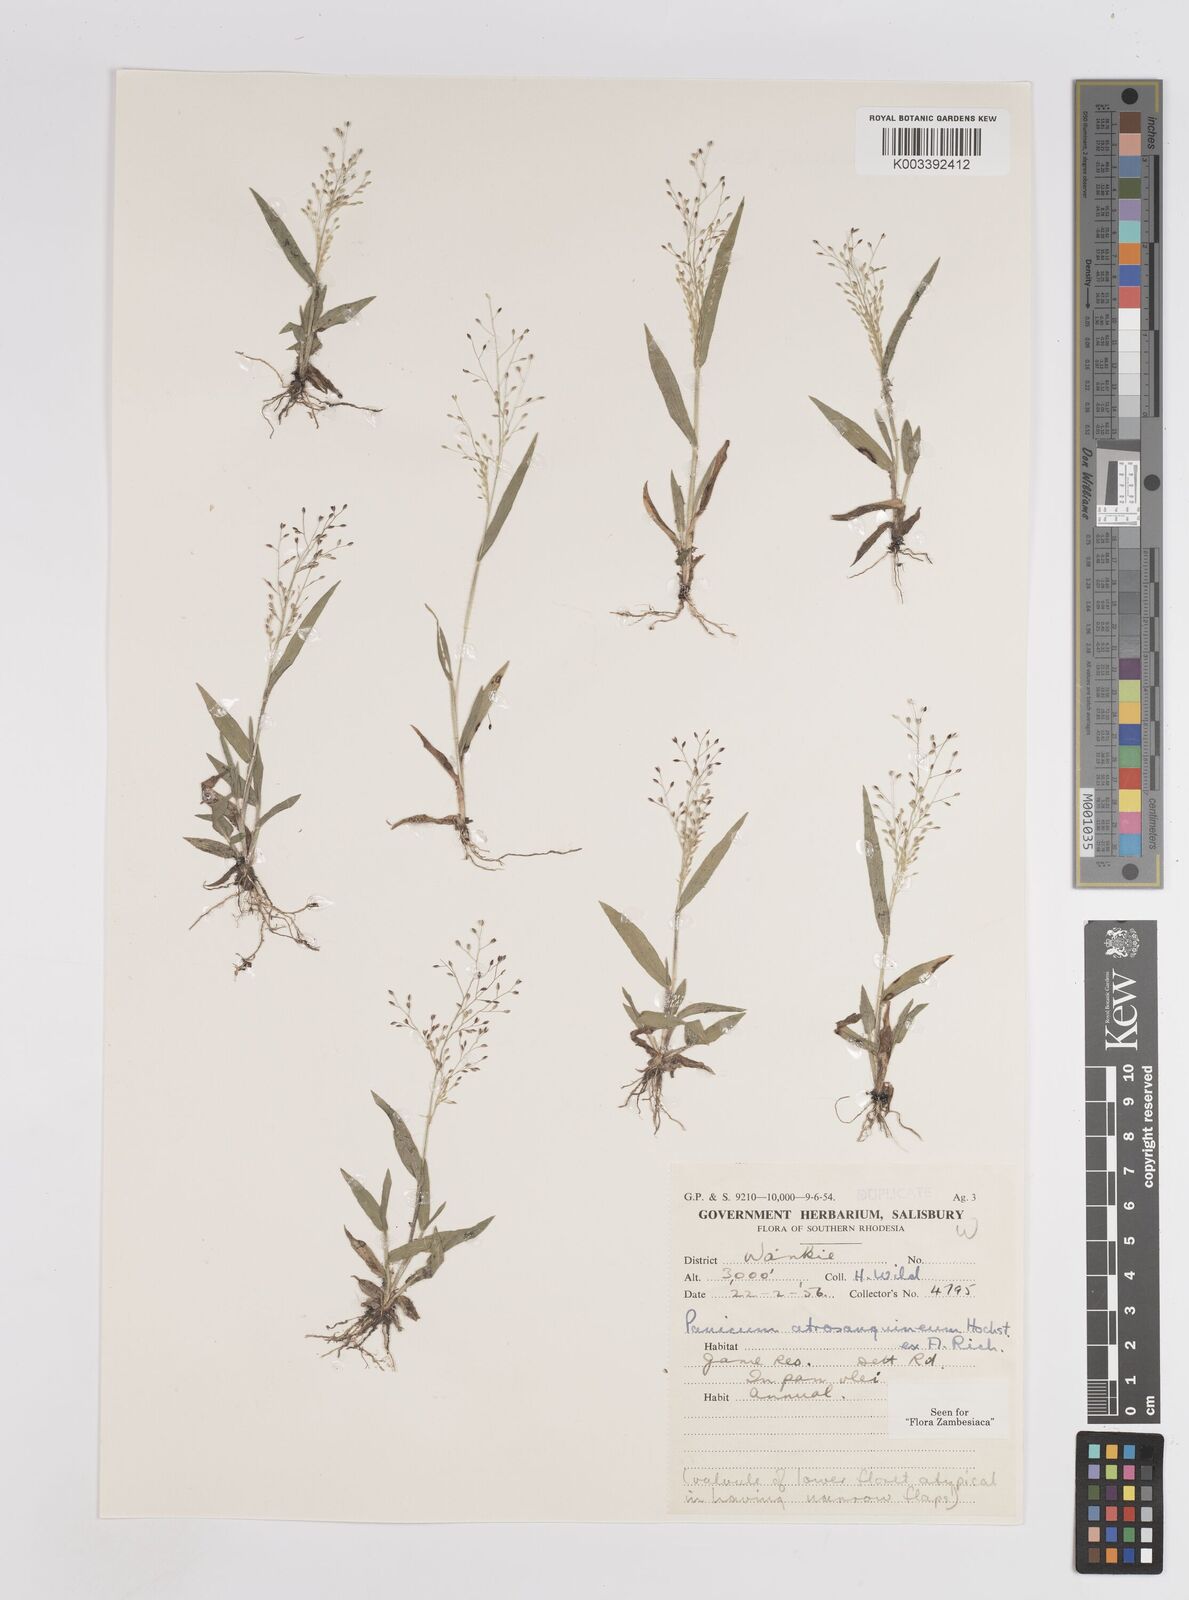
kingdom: Plantae
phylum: Tracheophyta
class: Liliopsida
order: Poales
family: Poaceae
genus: Panicum
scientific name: Panicum atrosanguineum
